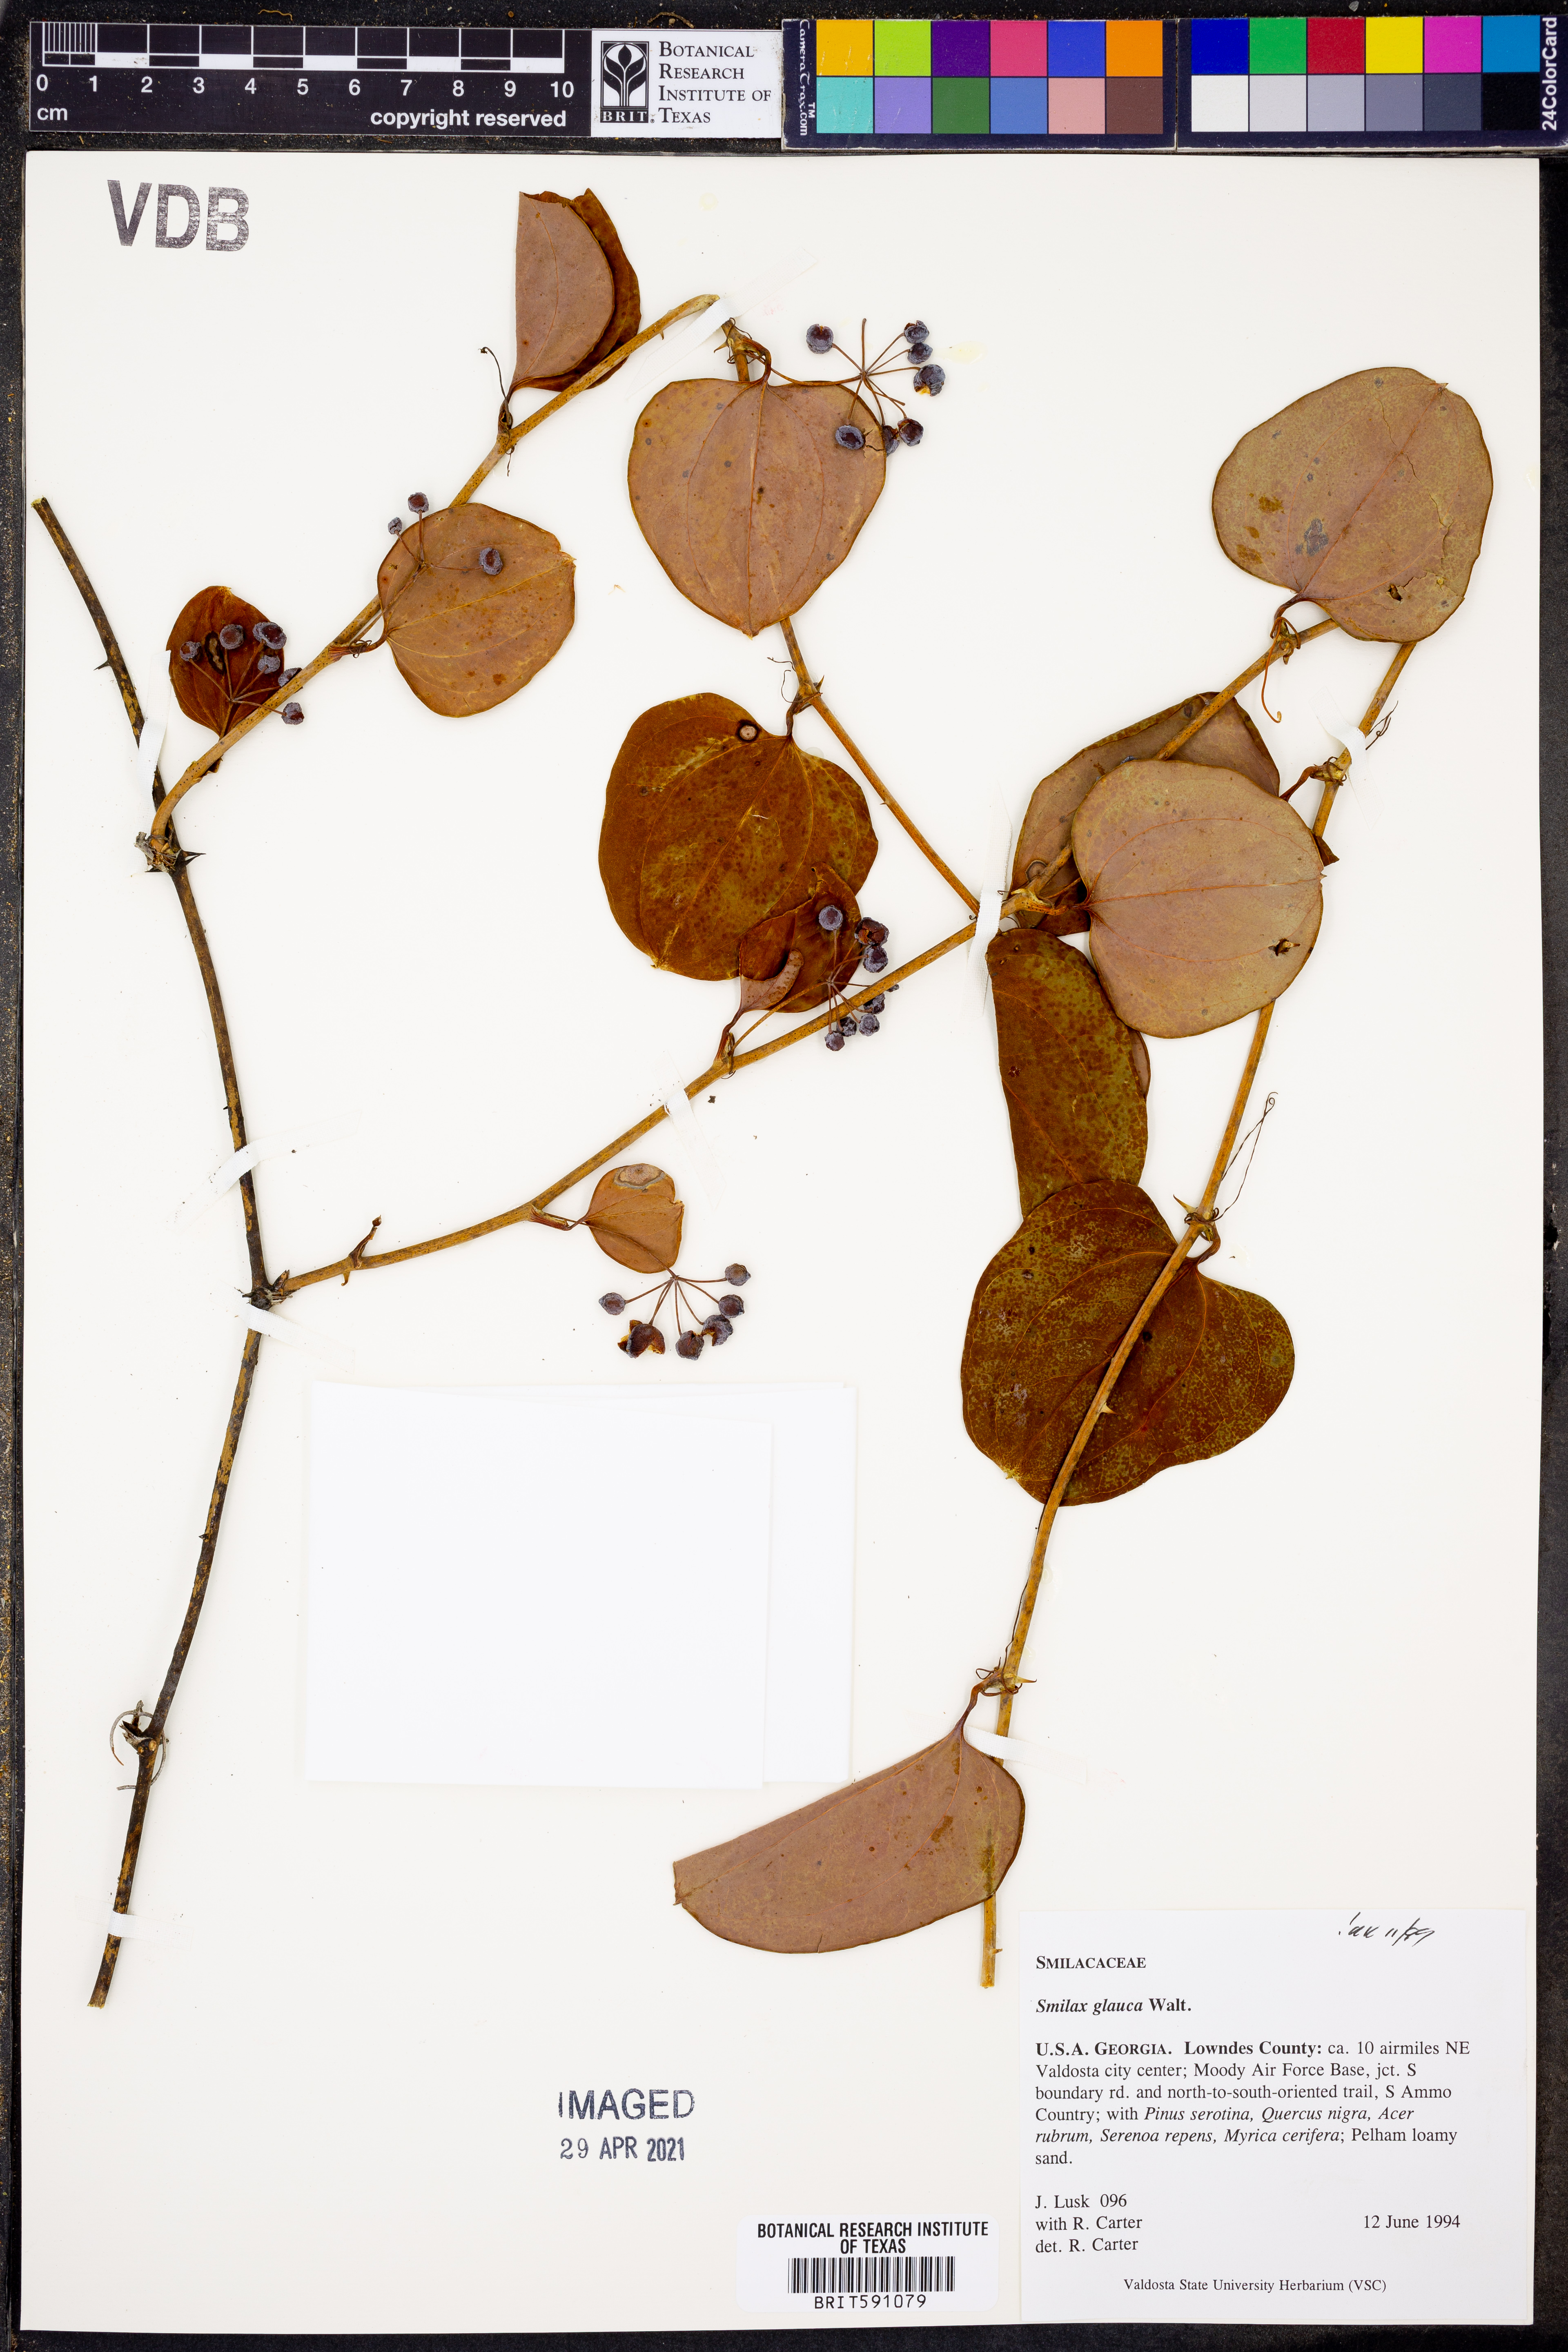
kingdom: Plantae
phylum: Tracheophyta
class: Liliopsida
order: Liliales
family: Smilacaceae
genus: Smilax
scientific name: Smilax glauca
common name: Cat greenbrier
